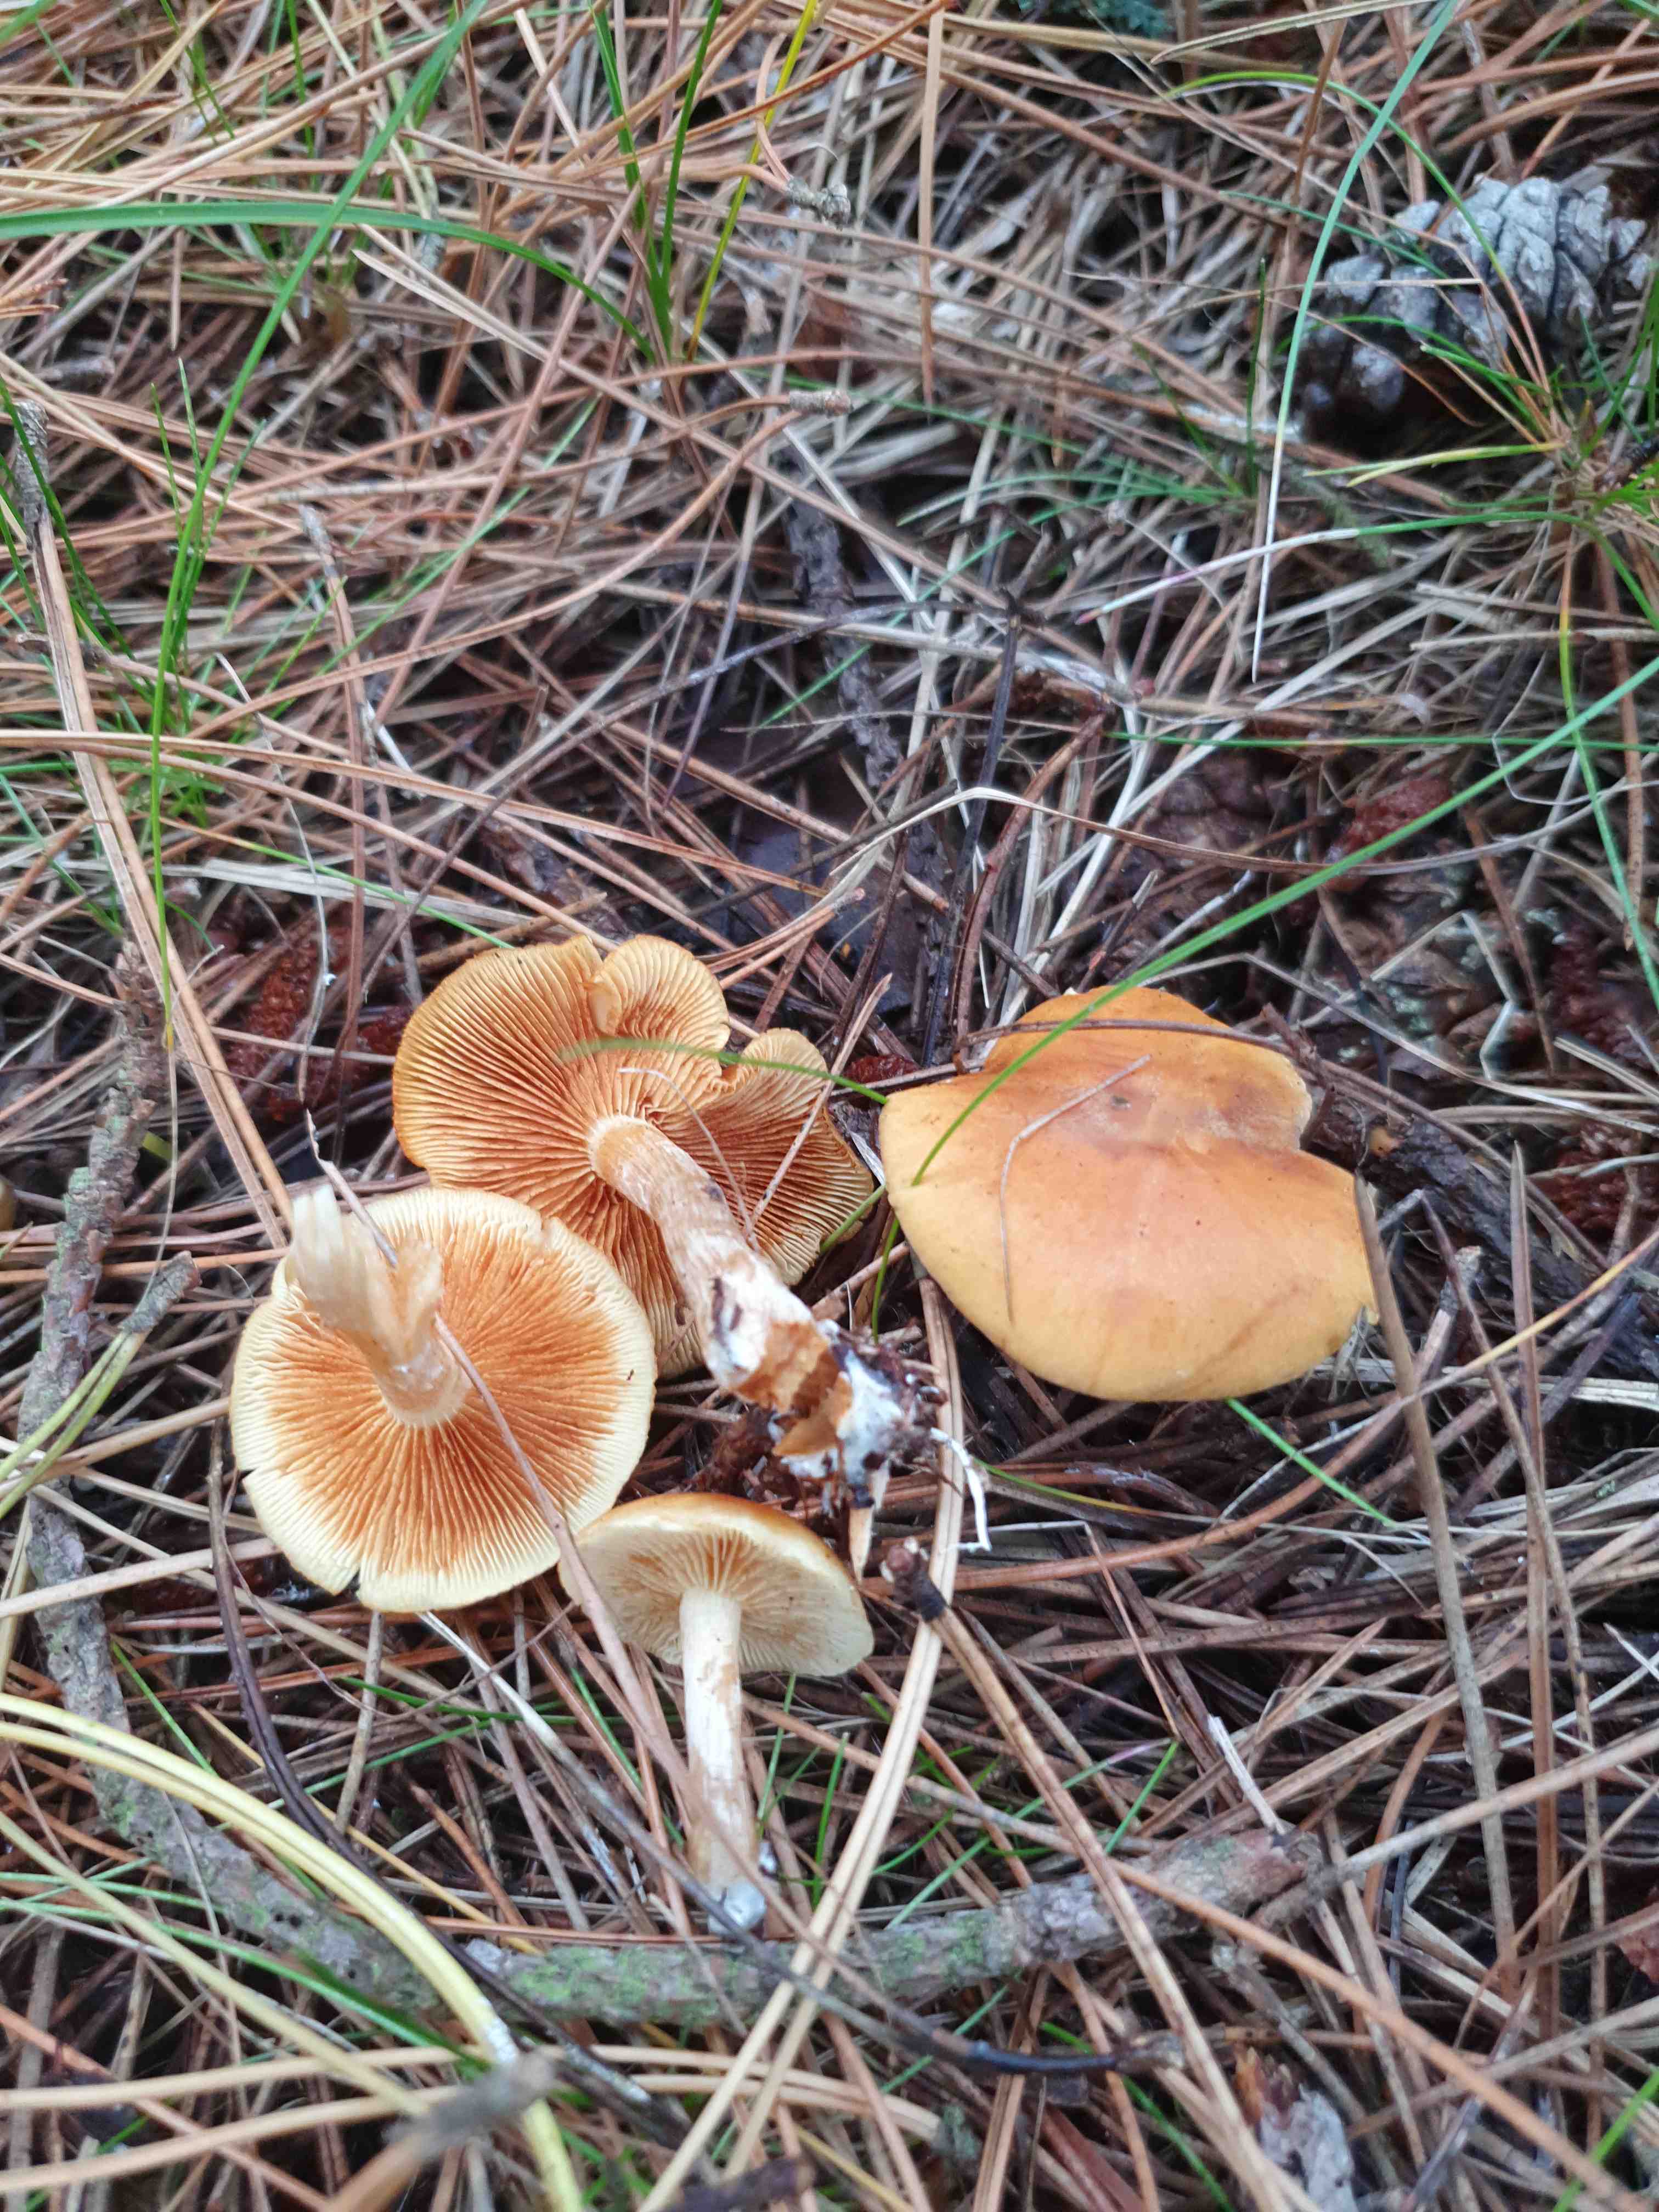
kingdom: Fungi
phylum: Basidiomycota
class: Agaricomycetes
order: Agaricales
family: Hymenogastraceae
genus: Gymnopilus
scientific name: Gymnopilus penetrans
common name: plettet flammehat
